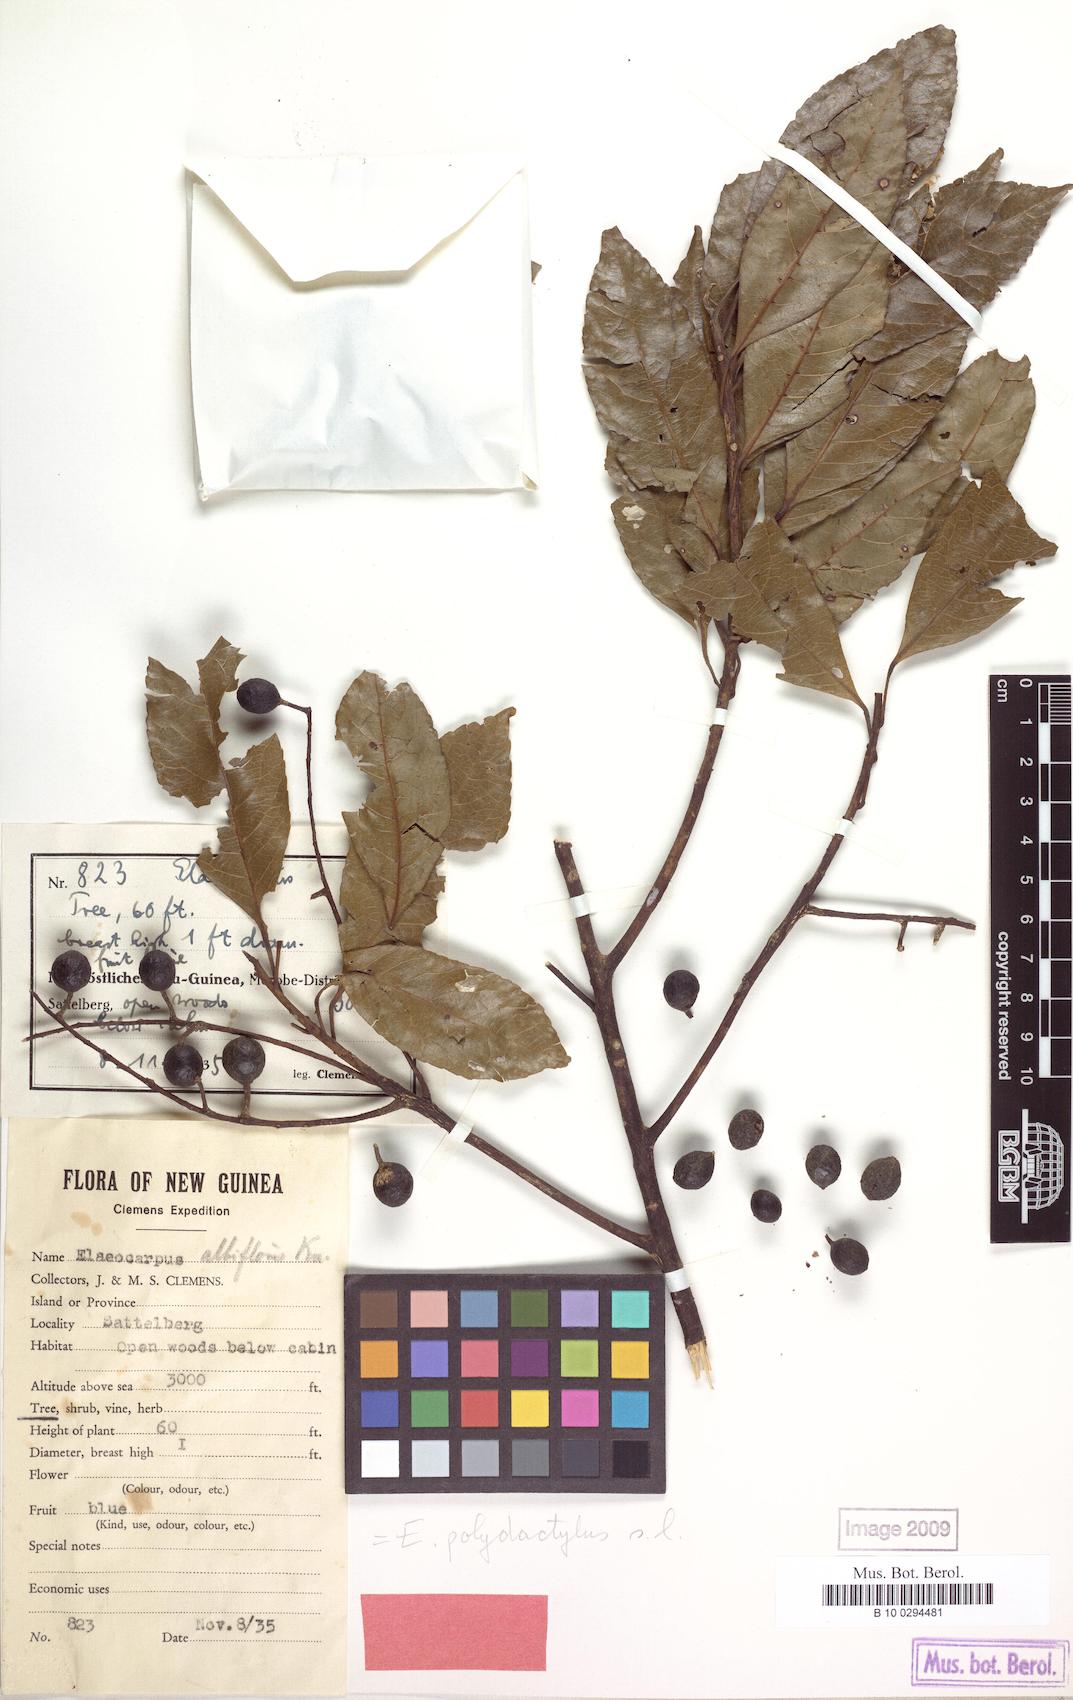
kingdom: Plantae
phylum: Tracheophyta
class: Magnoliopsida
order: Oxalidales
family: Elaeocarpaceae
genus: Elaeocarpus
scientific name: Elaeocarpus polydactylus
